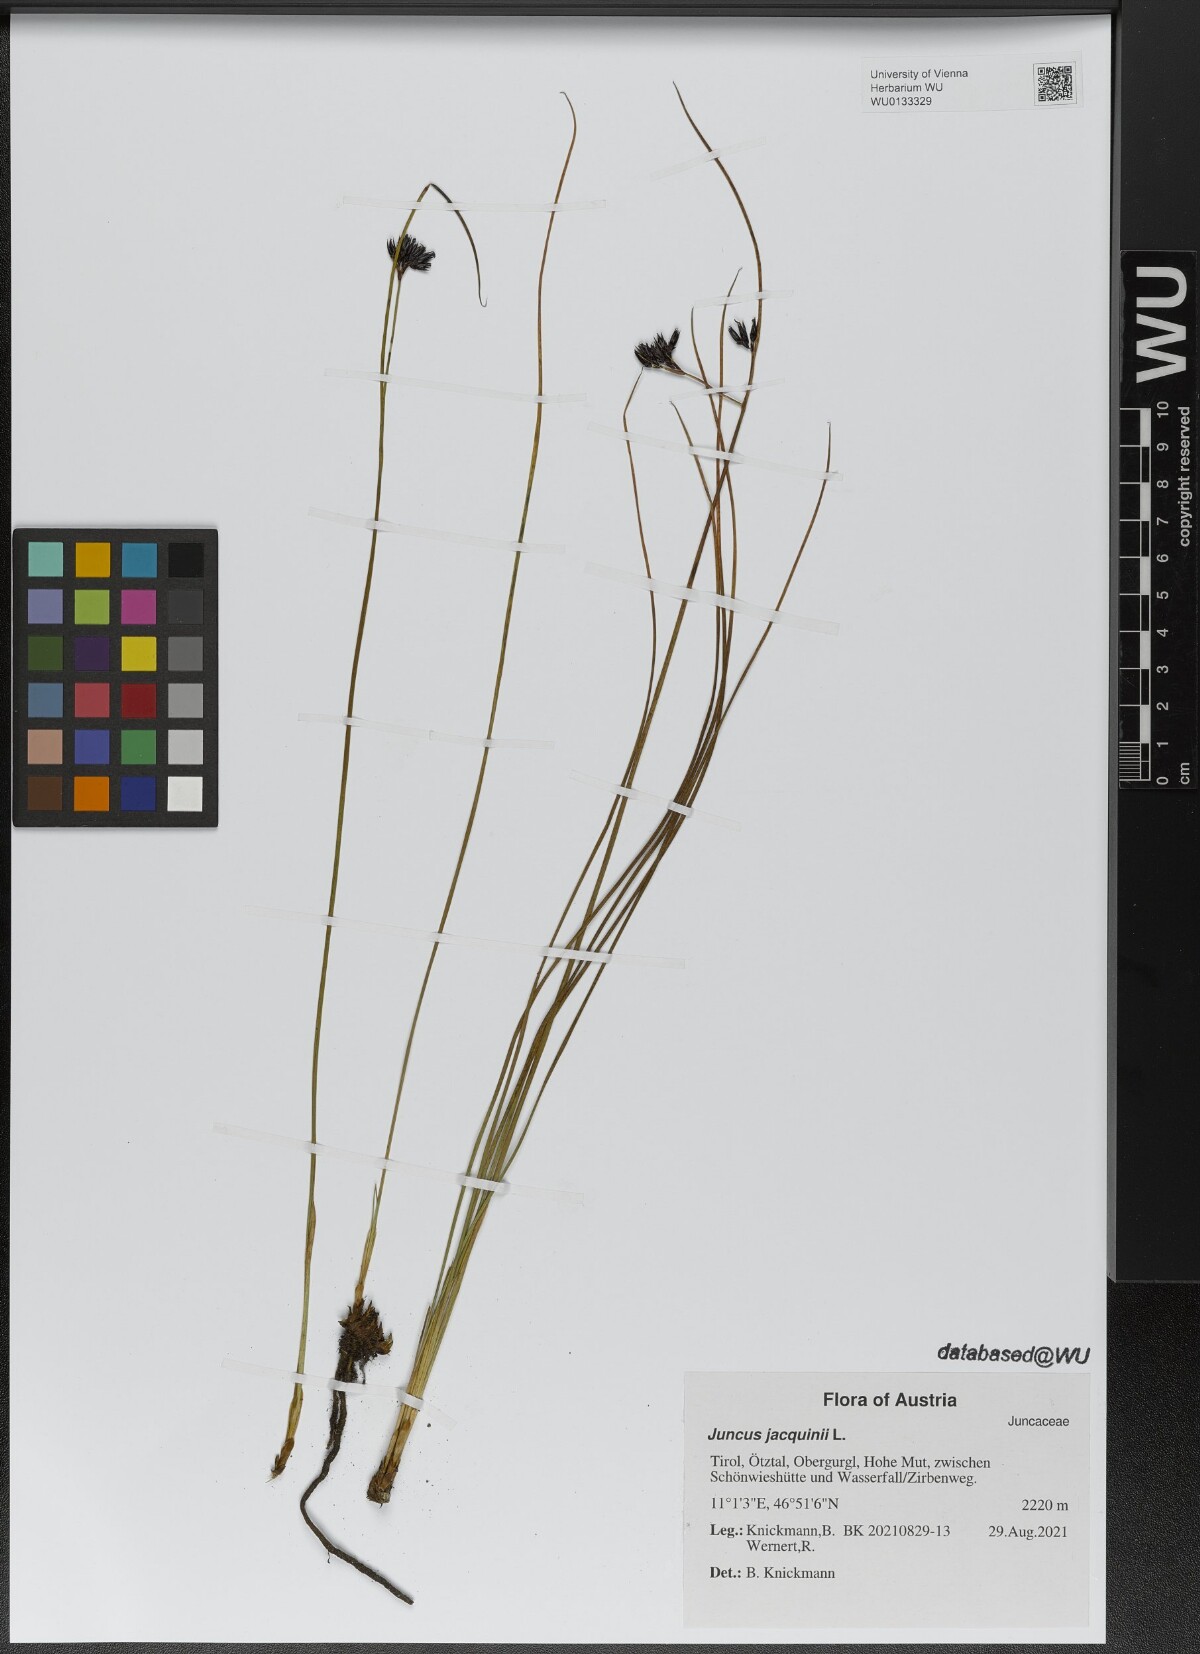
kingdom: Plantae
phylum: Tracheophyta
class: Liliopsida
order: Poales
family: Juncaceae
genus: Juncus
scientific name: Juncus jacquinii
